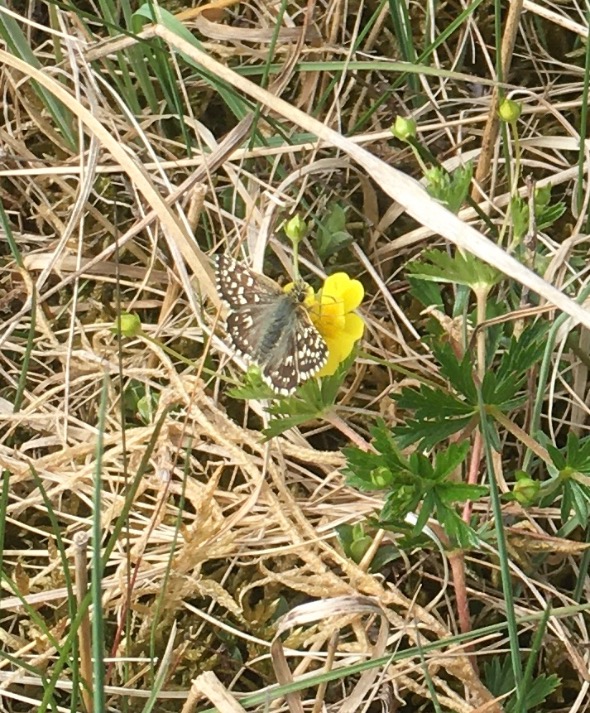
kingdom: Animalia
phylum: Arthropoda
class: Insecta
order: Lepidoptera
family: Hesperiidae
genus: Pyrgus
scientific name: Pyrgus malvae
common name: Spættet bredpande
